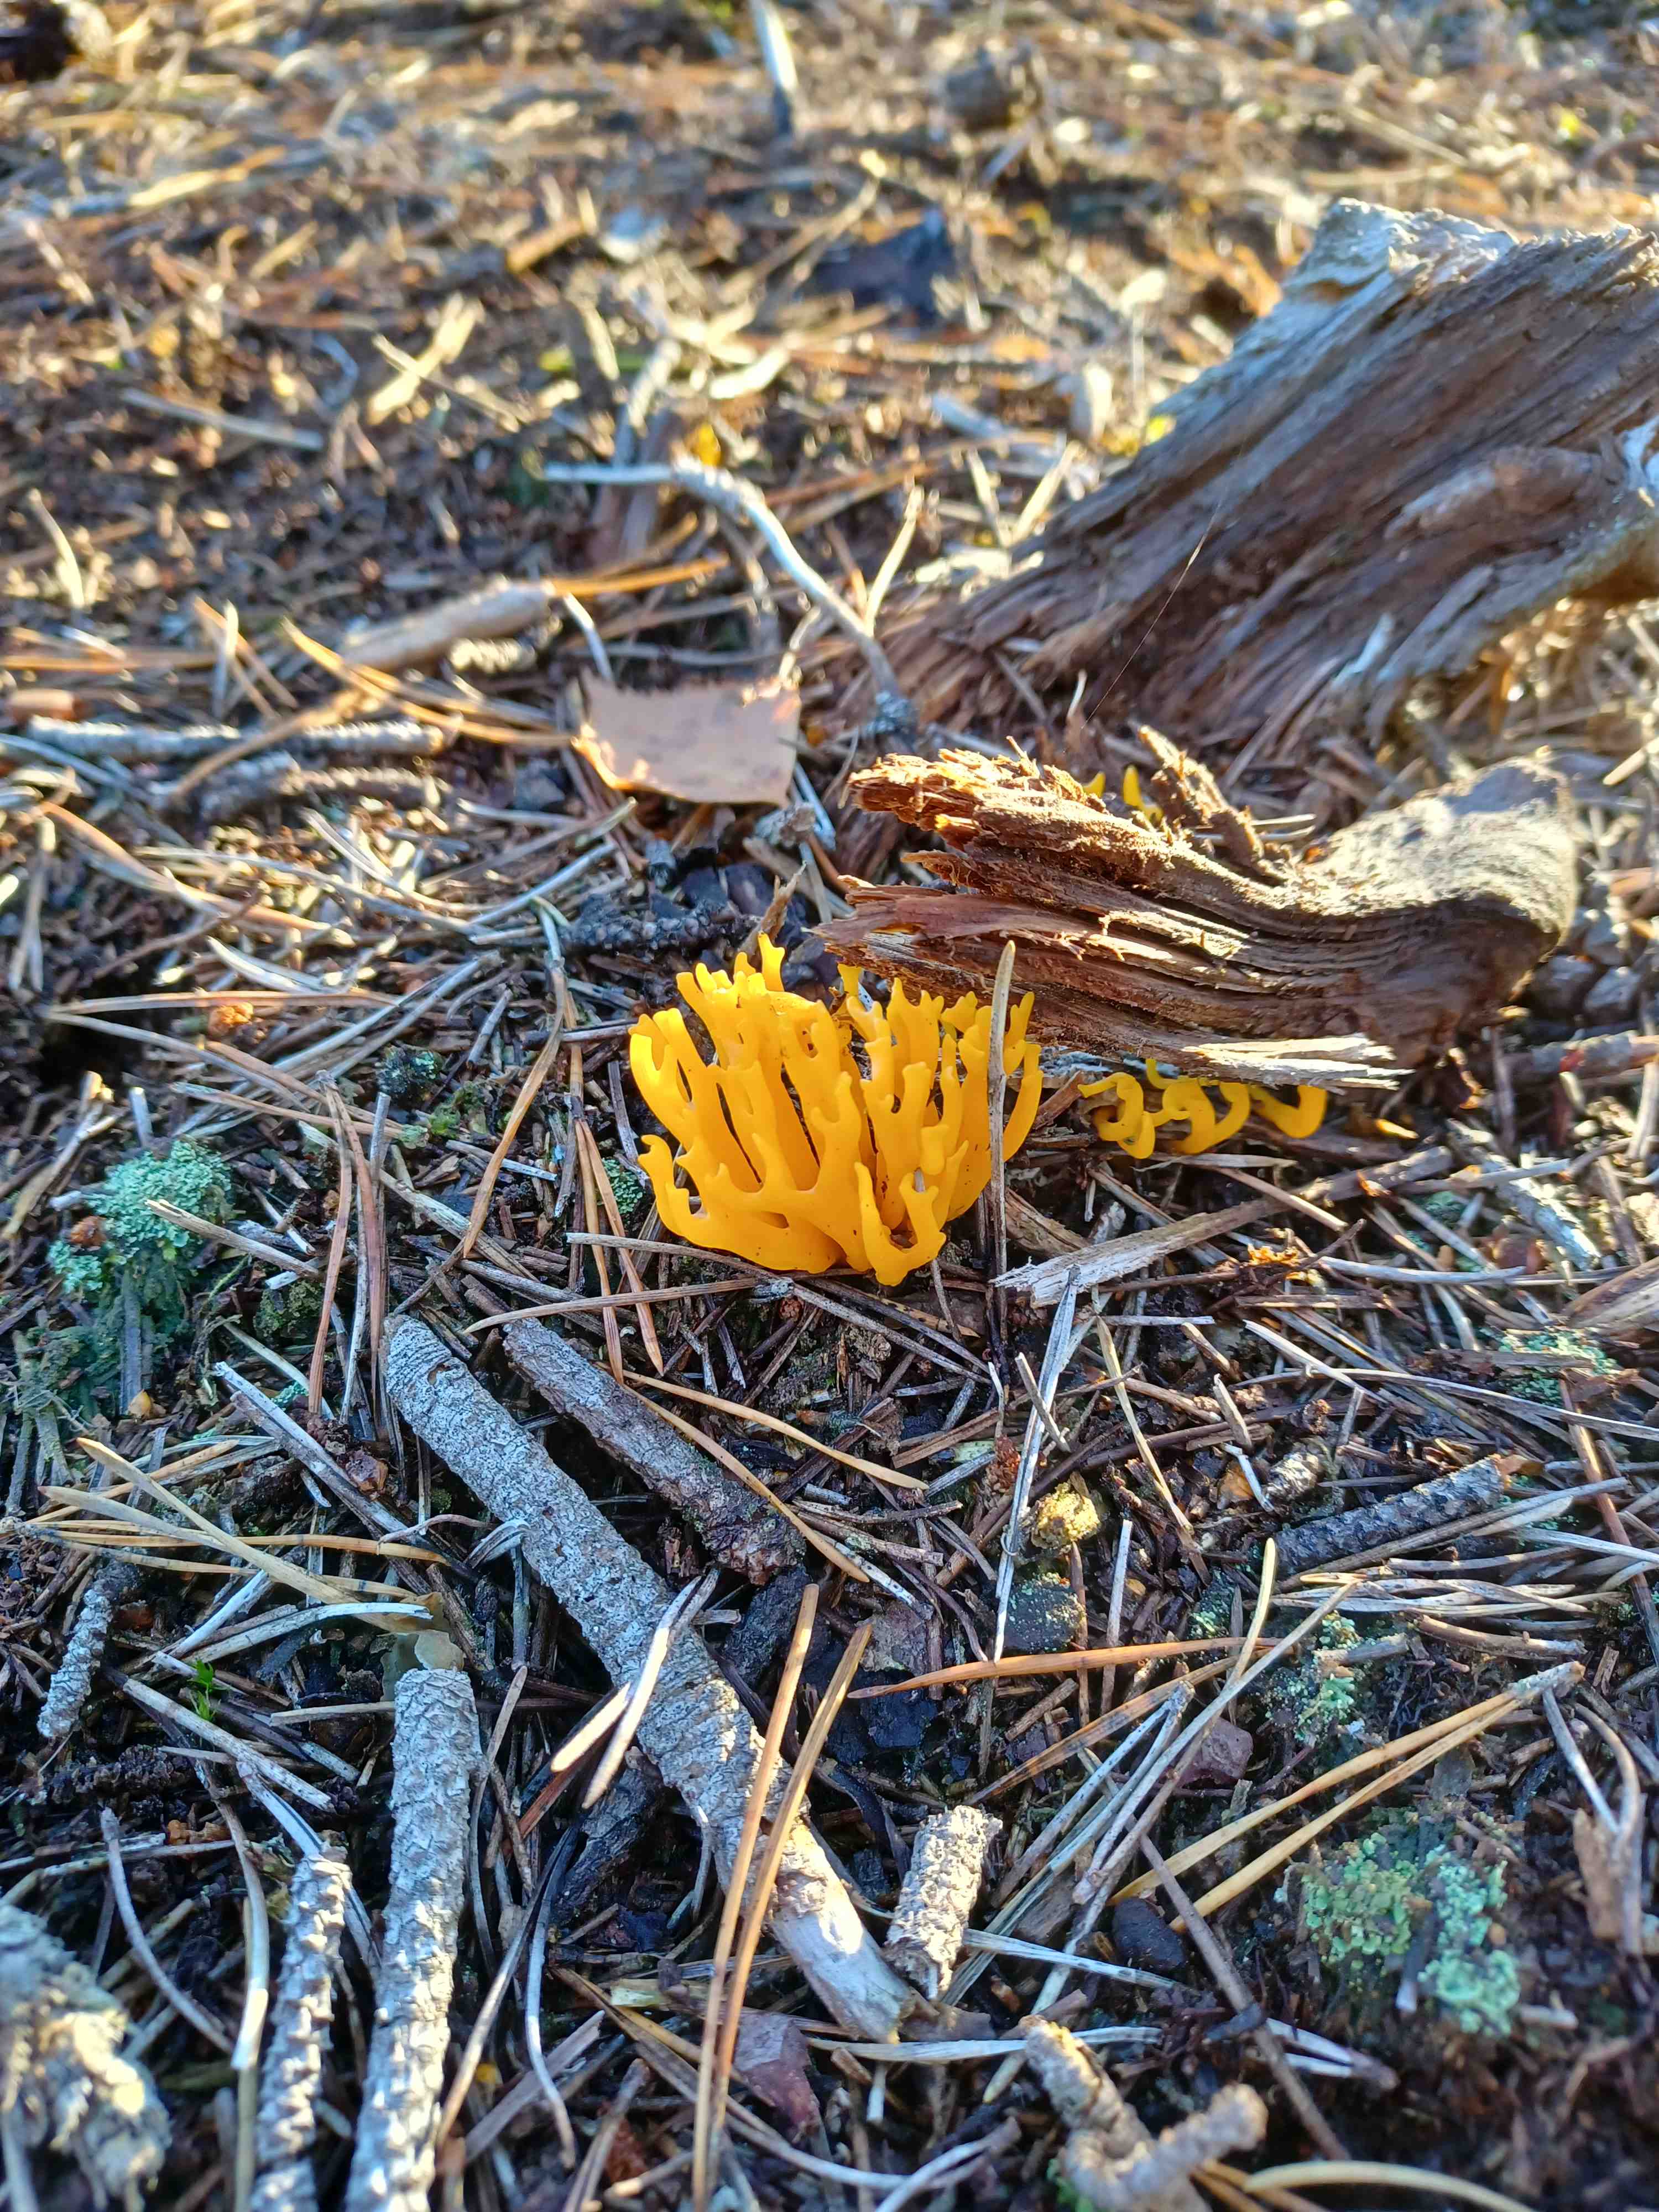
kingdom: Fungi
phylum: Basidiomycota
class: Dacrymycetes
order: Dacrymycetales
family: Dacrymycetaceae
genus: Calocera
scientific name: Calocera viscosa
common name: almindelig guldgaffel
